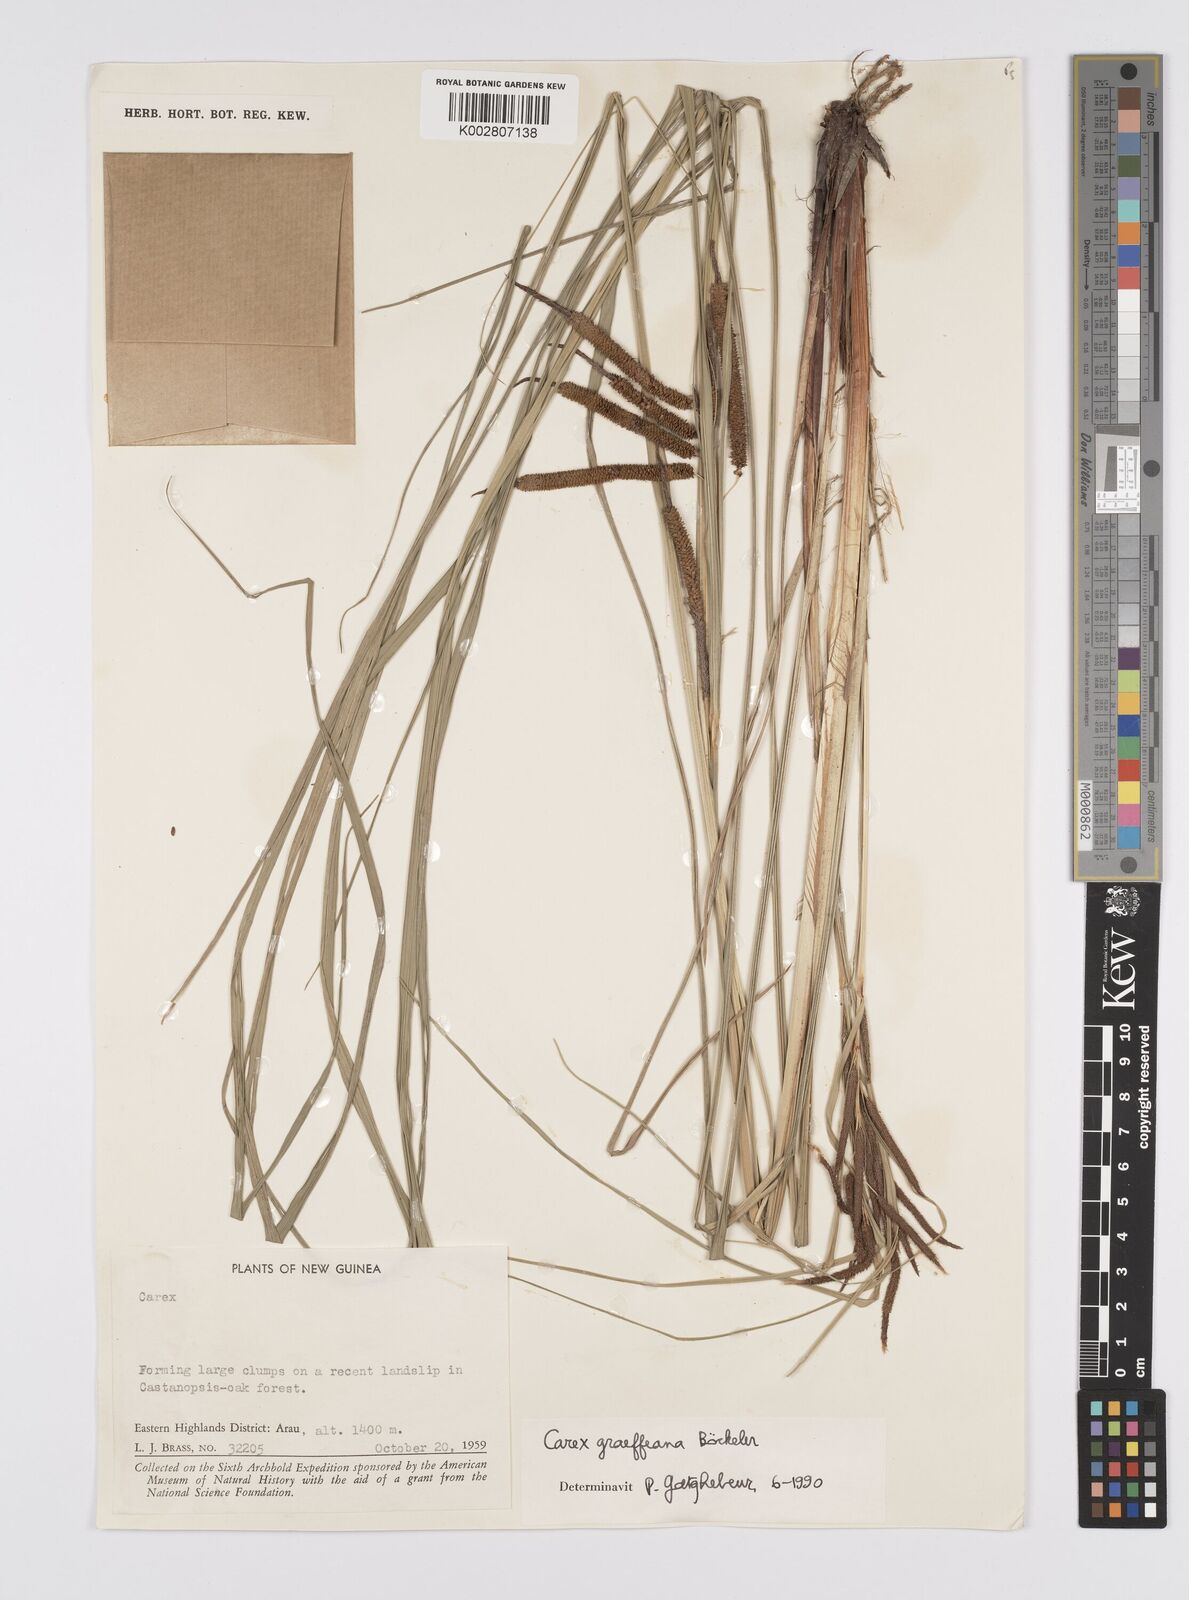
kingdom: Plantae
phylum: Tracheophyta
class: Liliopsida
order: Poales
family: Cyperaceae
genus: Carex
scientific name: Carex graeffeana
